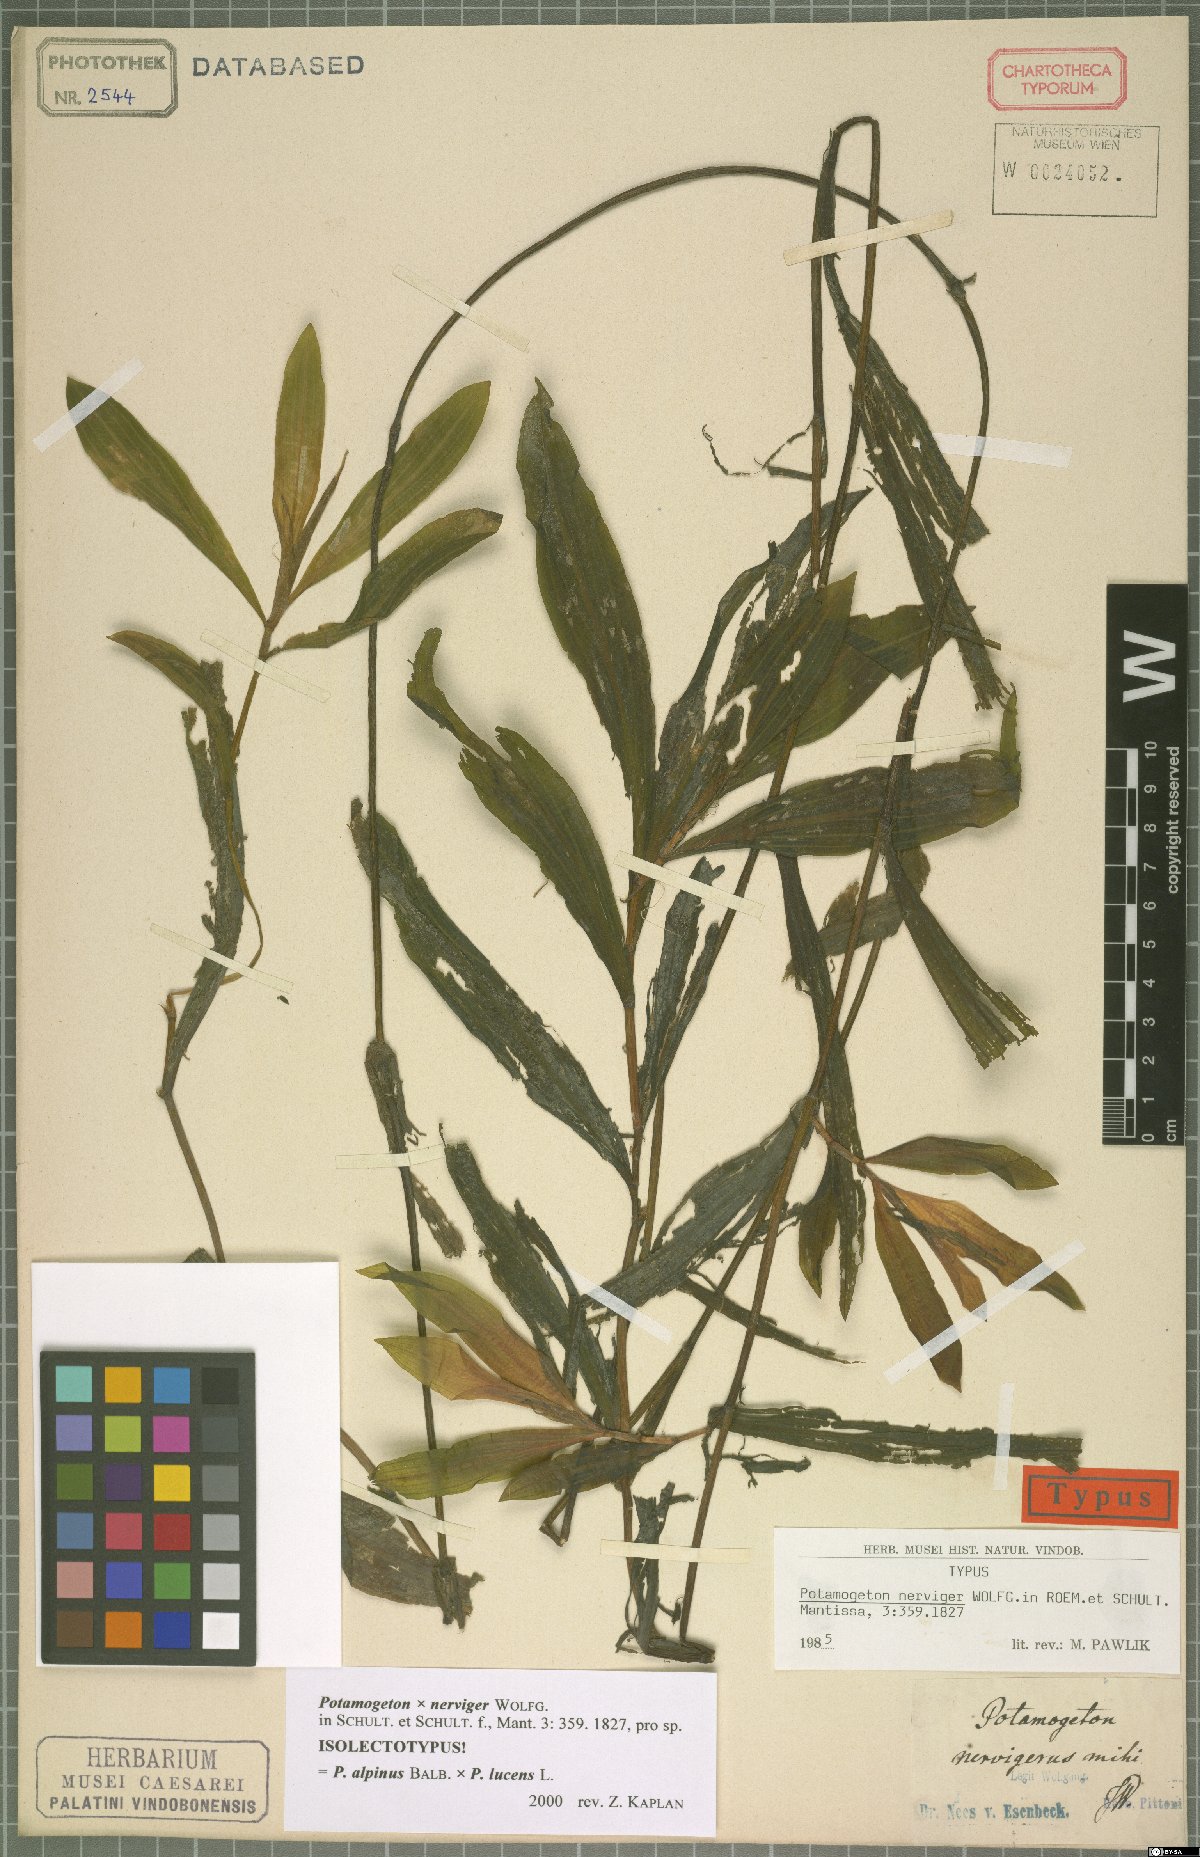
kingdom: Plantae
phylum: Tracheophyta
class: Liliopsida
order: Alismatales
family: Potamogetonaceae
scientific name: Potamogetonaceae
